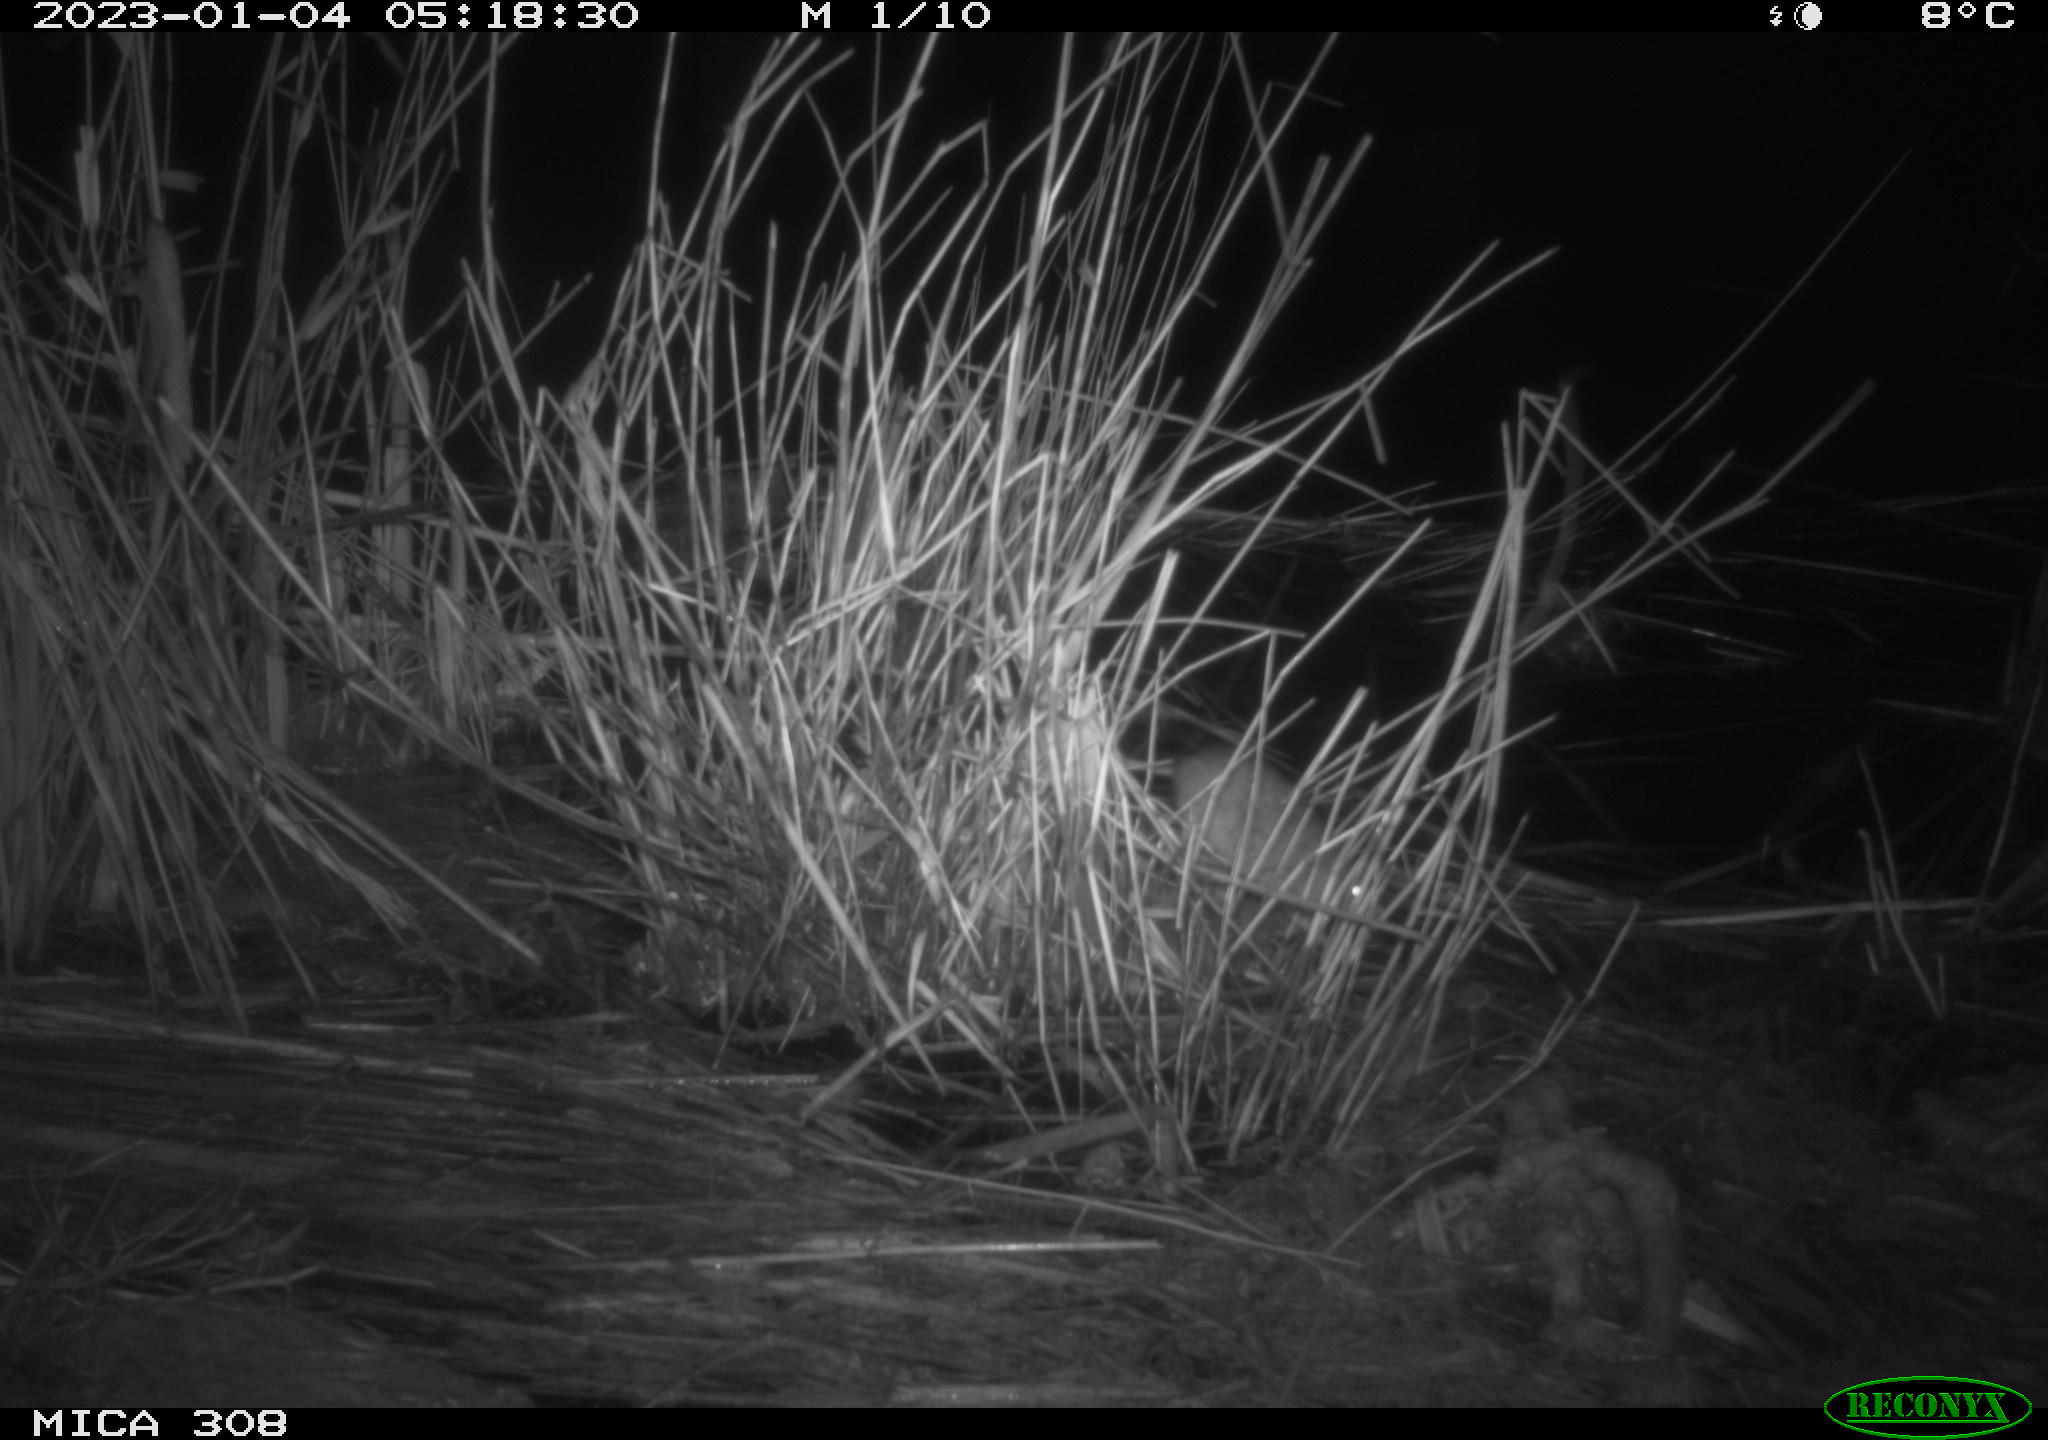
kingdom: Animalia
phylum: Chordata
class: Mammalia
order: Rodentia
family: Muridae
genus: Rattus
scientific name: Rattus norvegicus
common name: Brown rat
